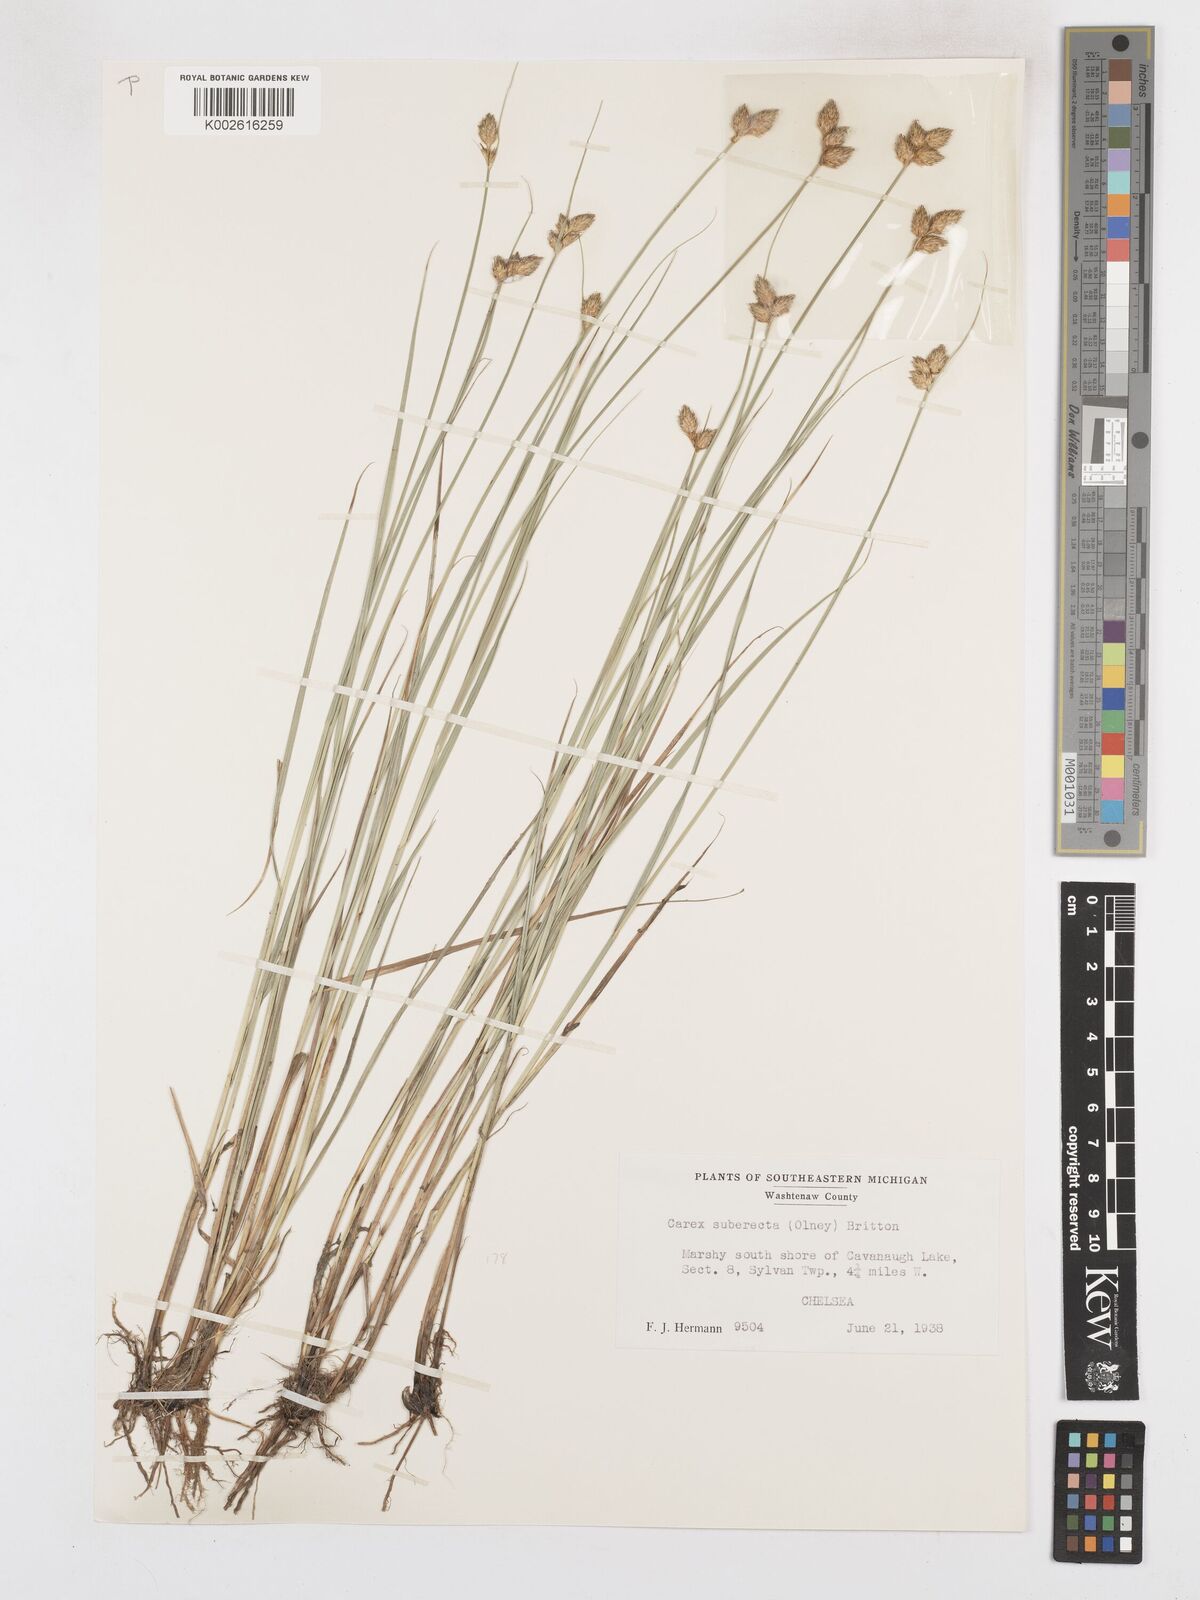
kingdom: Plantae
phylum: Tracheophyta
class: Liliopsida
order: Poales
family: Cyperaceae
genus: Carex
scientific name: Carex suberecta
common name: Prairie straw sedge
